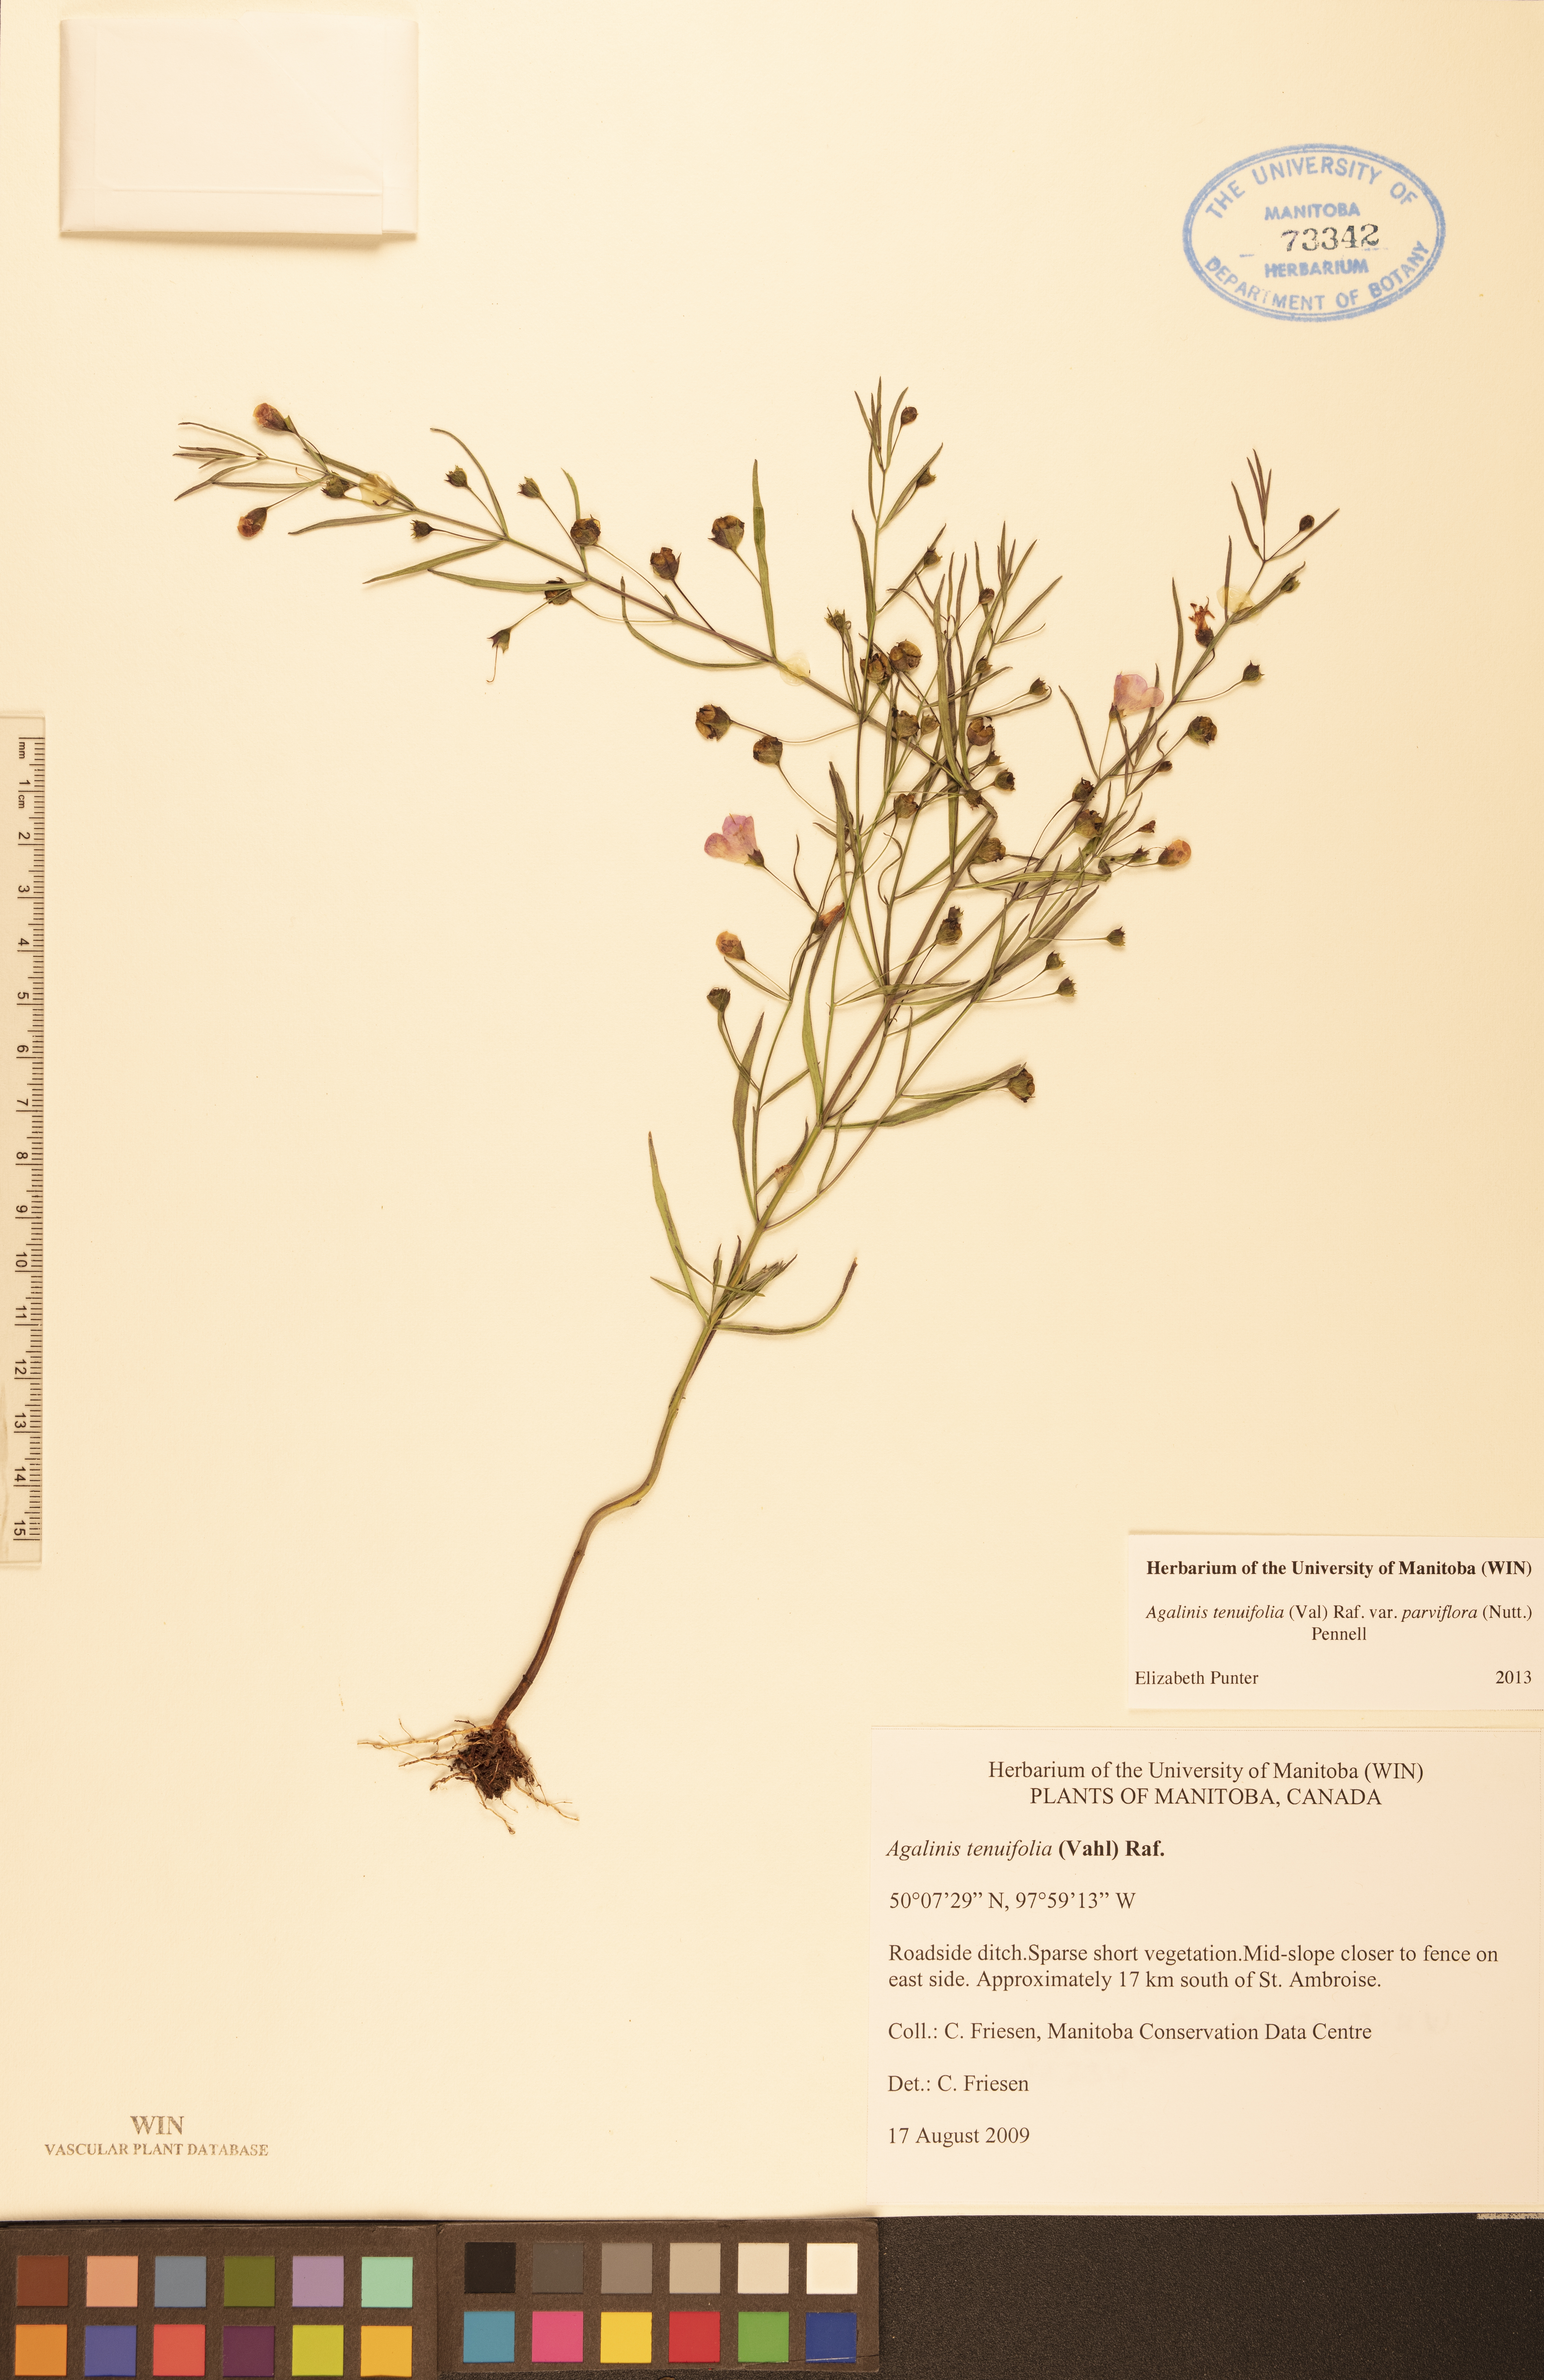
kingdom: Plantae
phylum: Tracheophyta
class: Magnoliopsida
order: Lamiales
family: Orobanchaceae
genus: Agalinis
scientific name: Agalinis tenuifolia
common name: Slender agalinis
